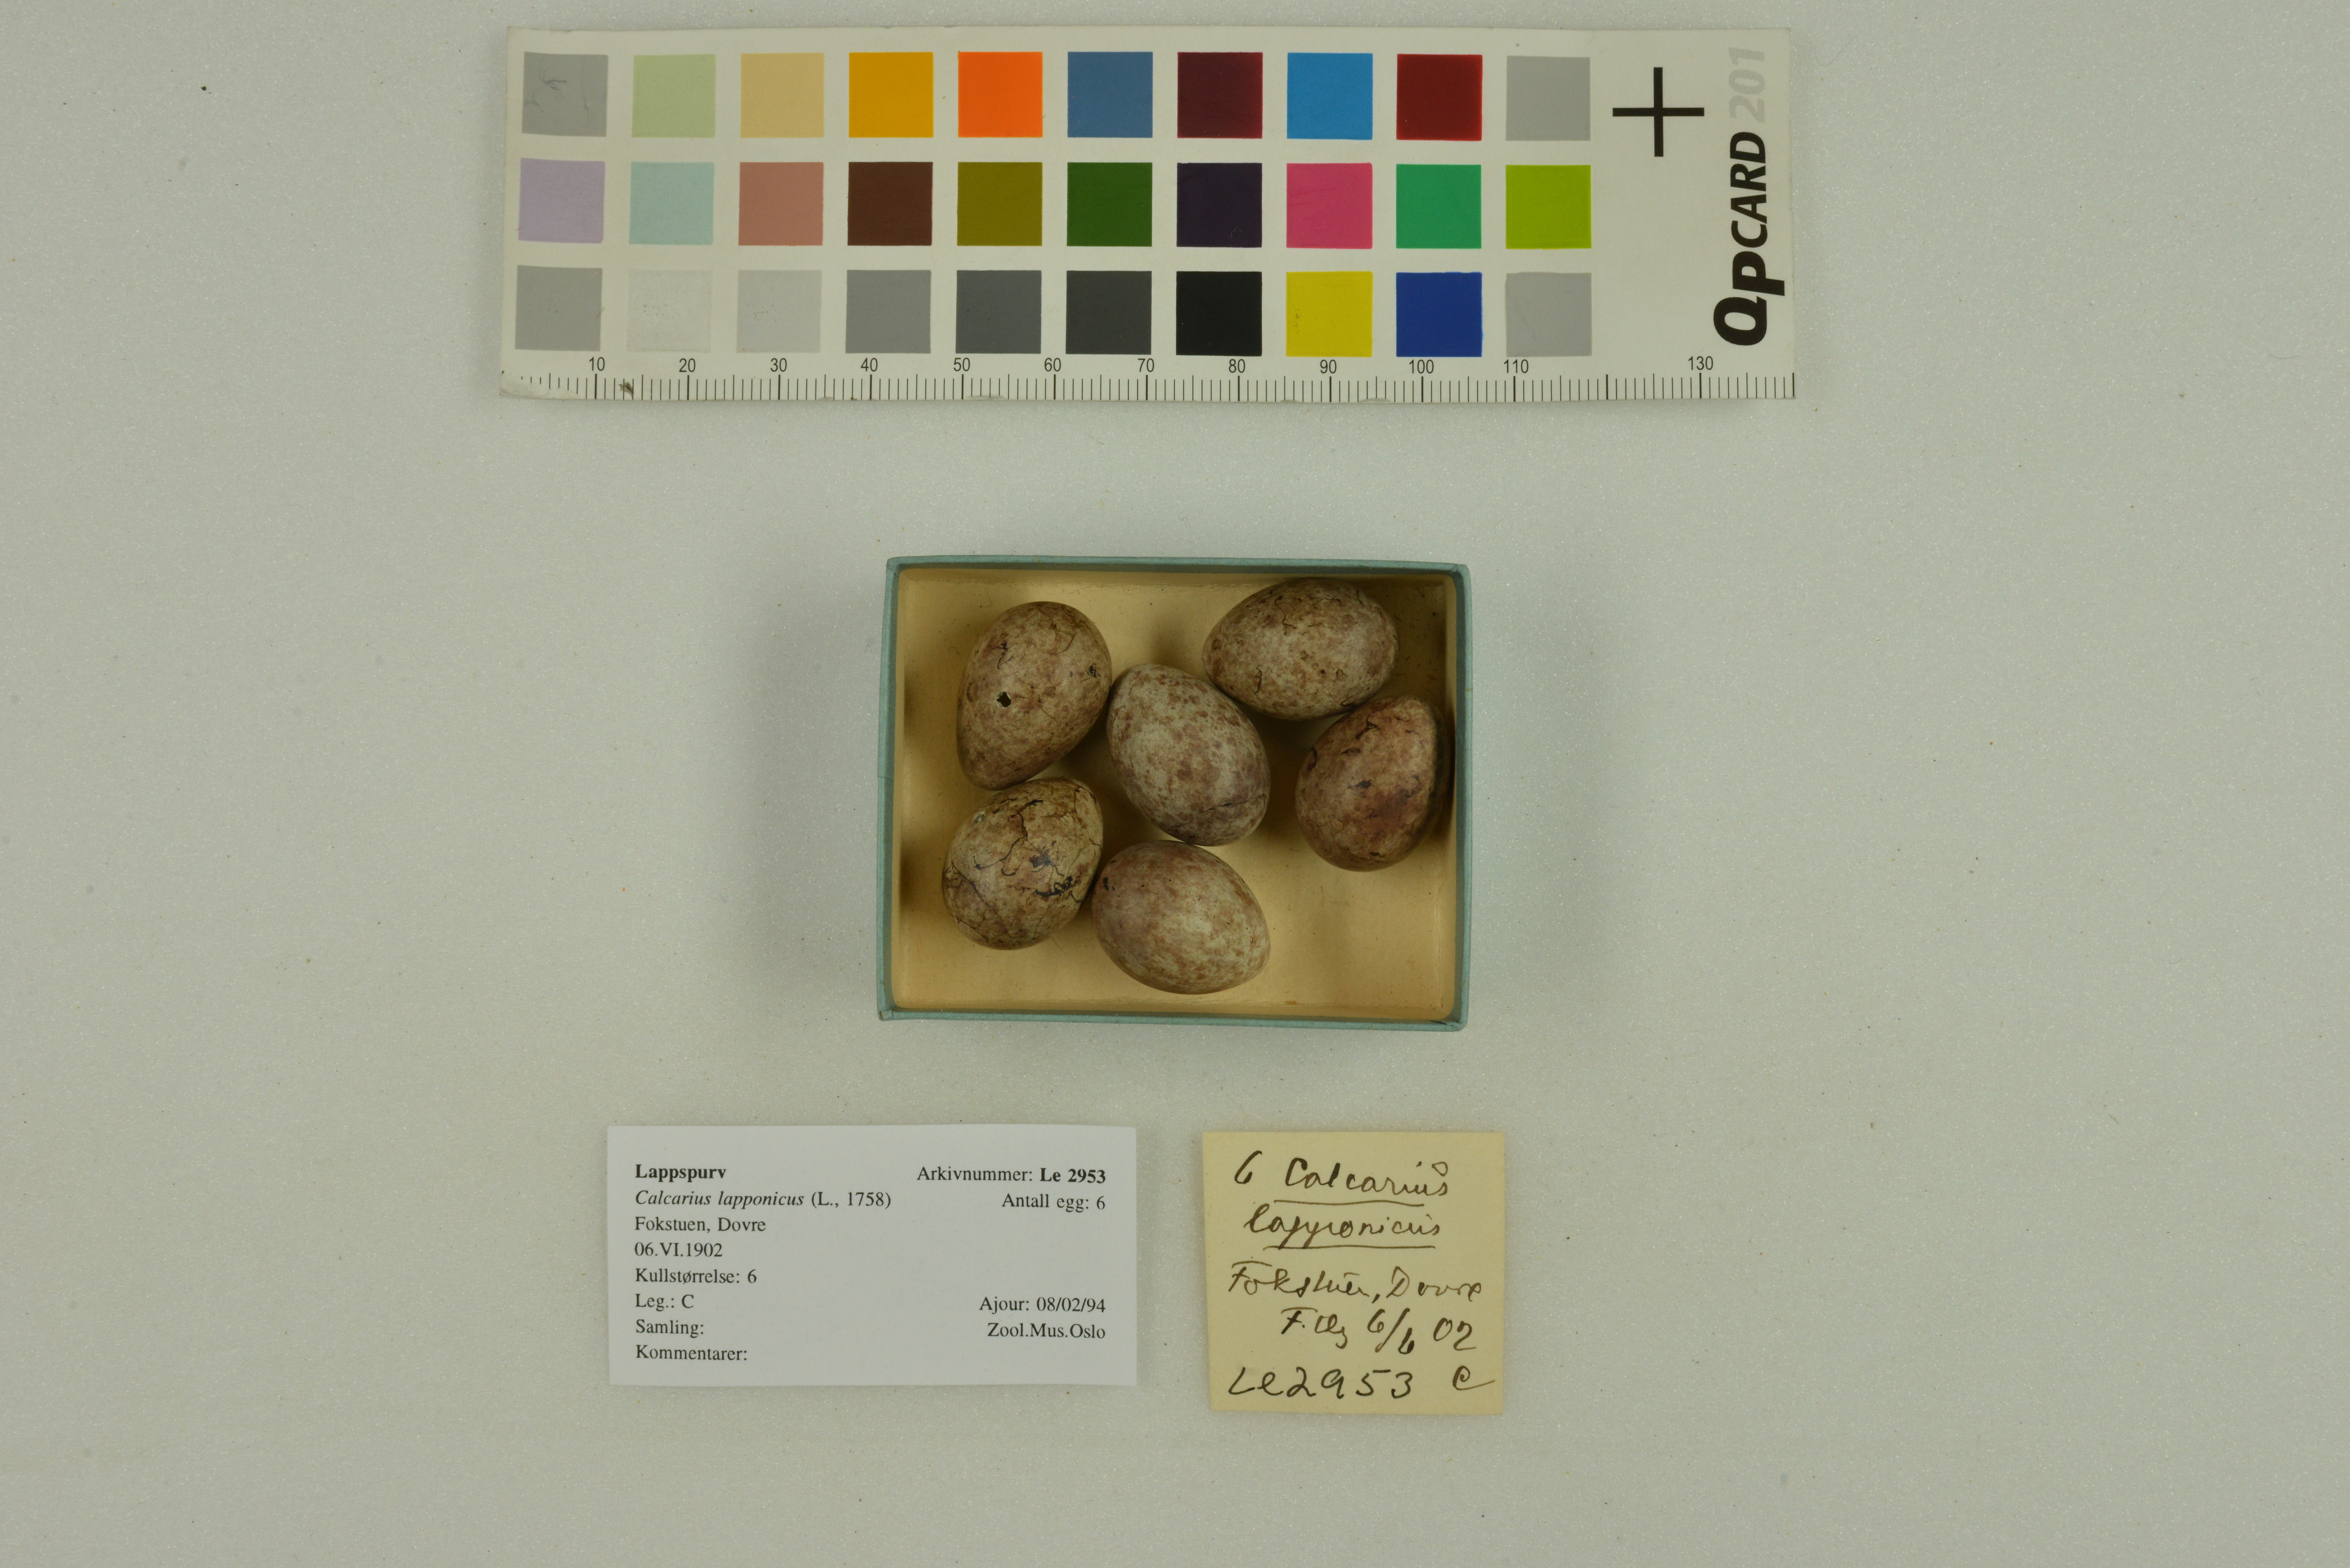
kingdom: Animalia
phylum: Chordata
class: Aves
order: Passeriformes
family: Calcariidae
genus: Calcarius
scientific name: Calcarius lapponicus
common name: Lapland longspur
